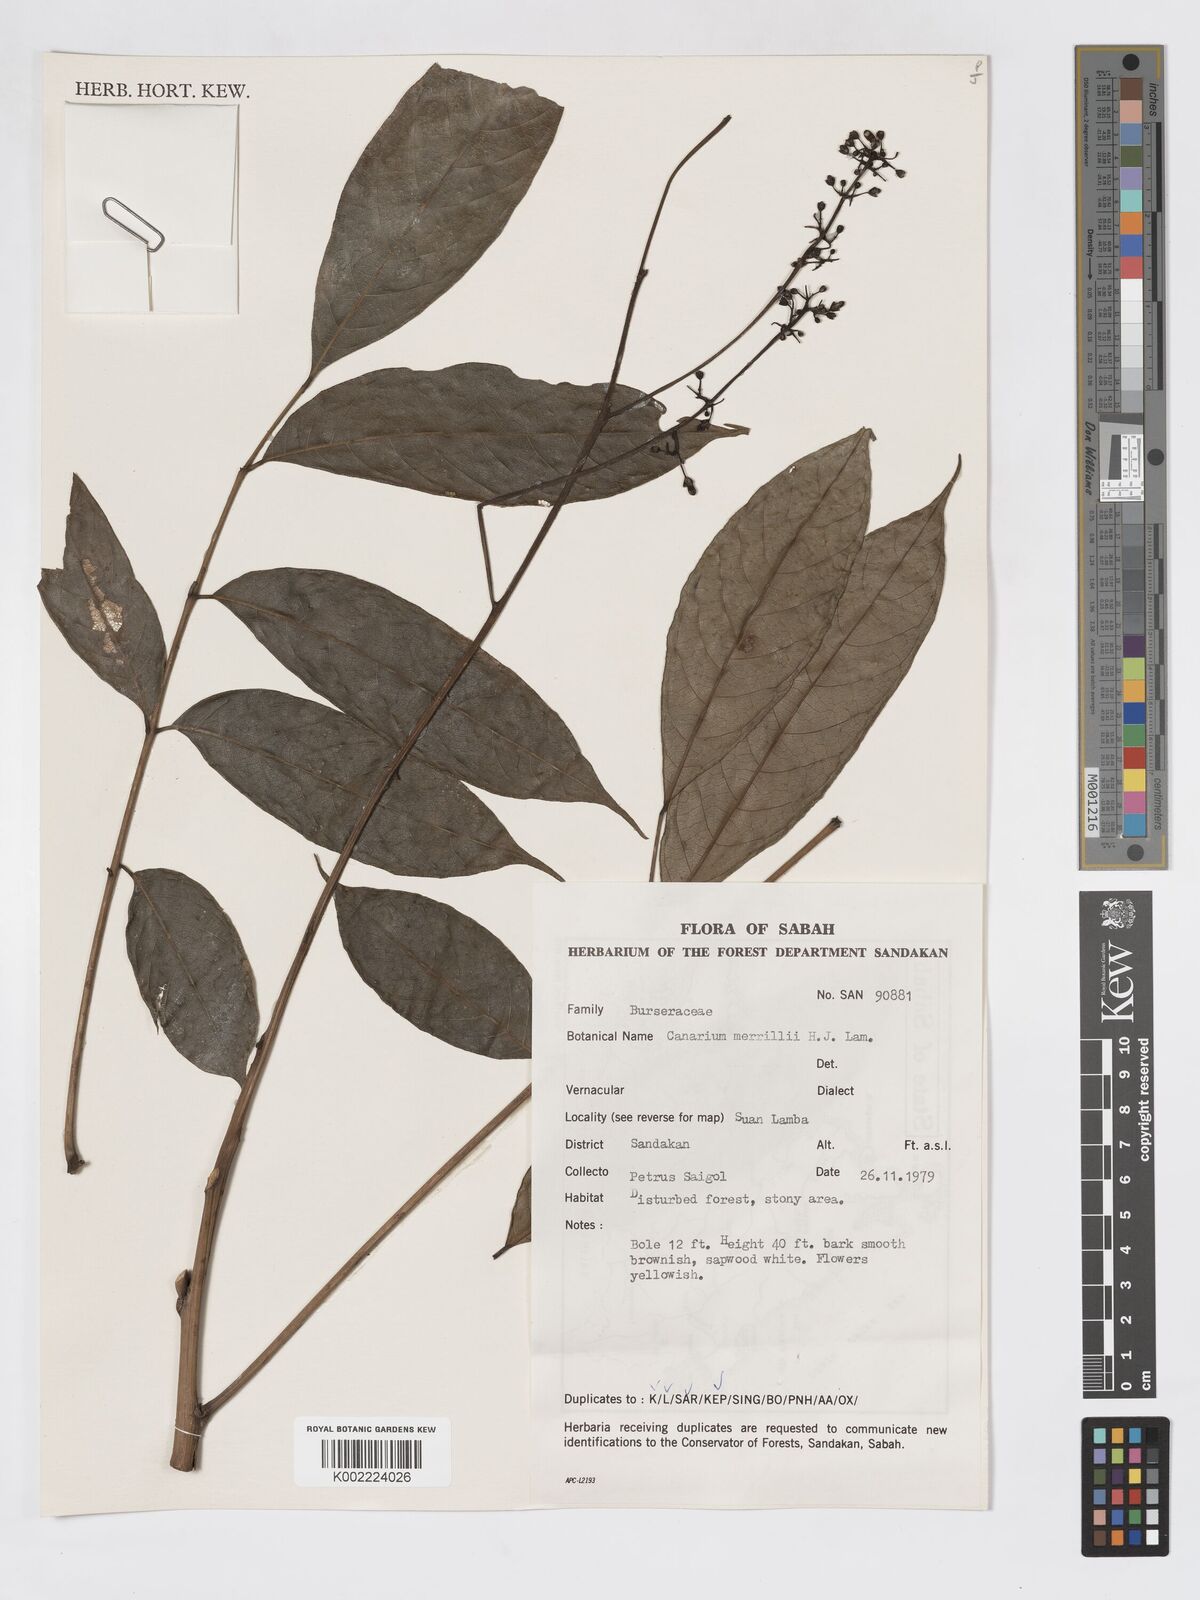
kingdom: Plantae
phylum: Tracheophyta
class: Magnoliopsida
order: Sapindales
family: Burseraceae
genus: Canarium
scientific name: Canarium merrillii
